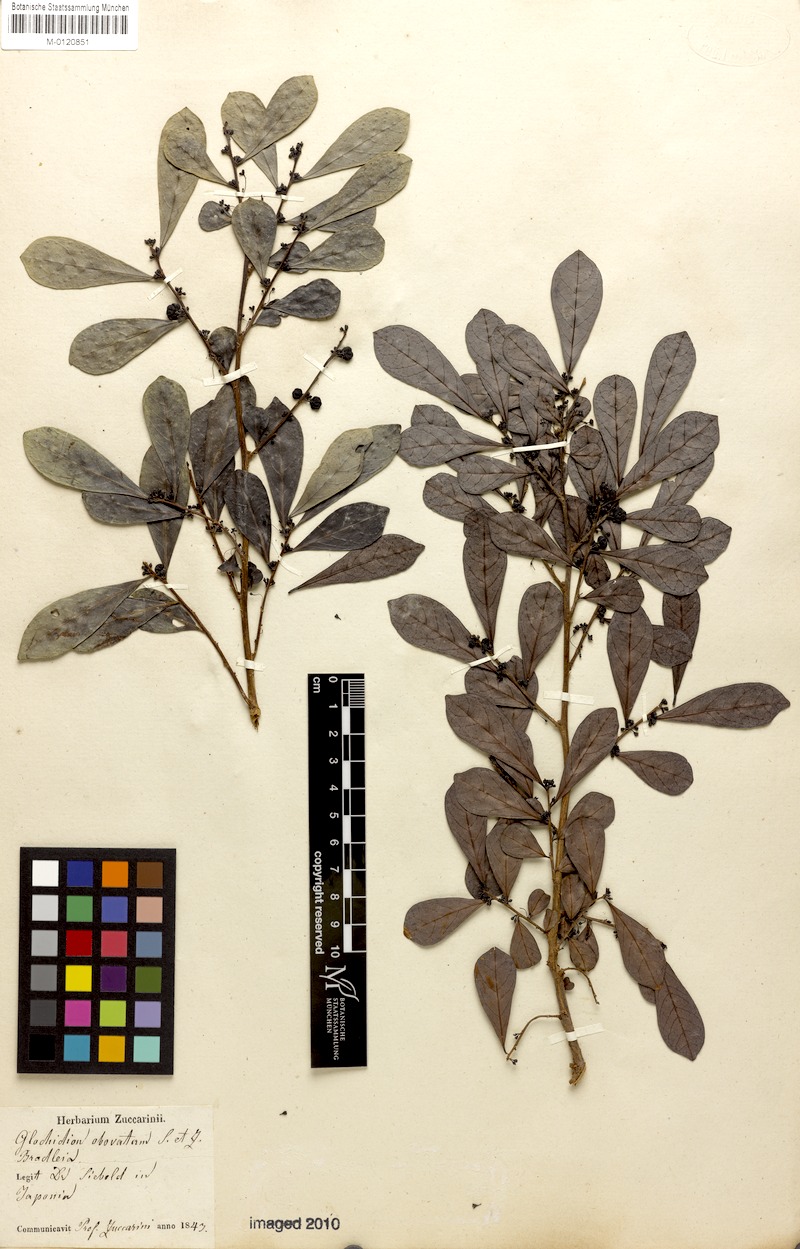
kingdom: Plantae
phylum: Tracheophyta
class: Magnoliopsida
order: Malpighiales
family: Phyllanthaceae
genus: Glochidion
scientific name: Glochidion obovatum
